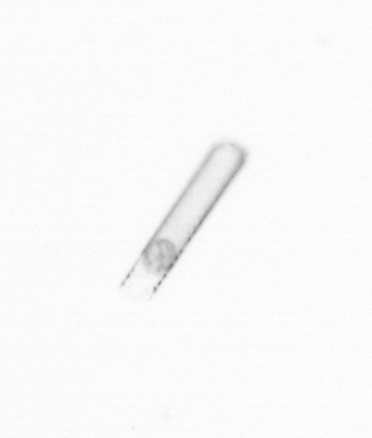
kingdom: Chromista
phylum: Ochrophyta
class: Bacillariophyceae
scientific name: Bacillariophyceae
